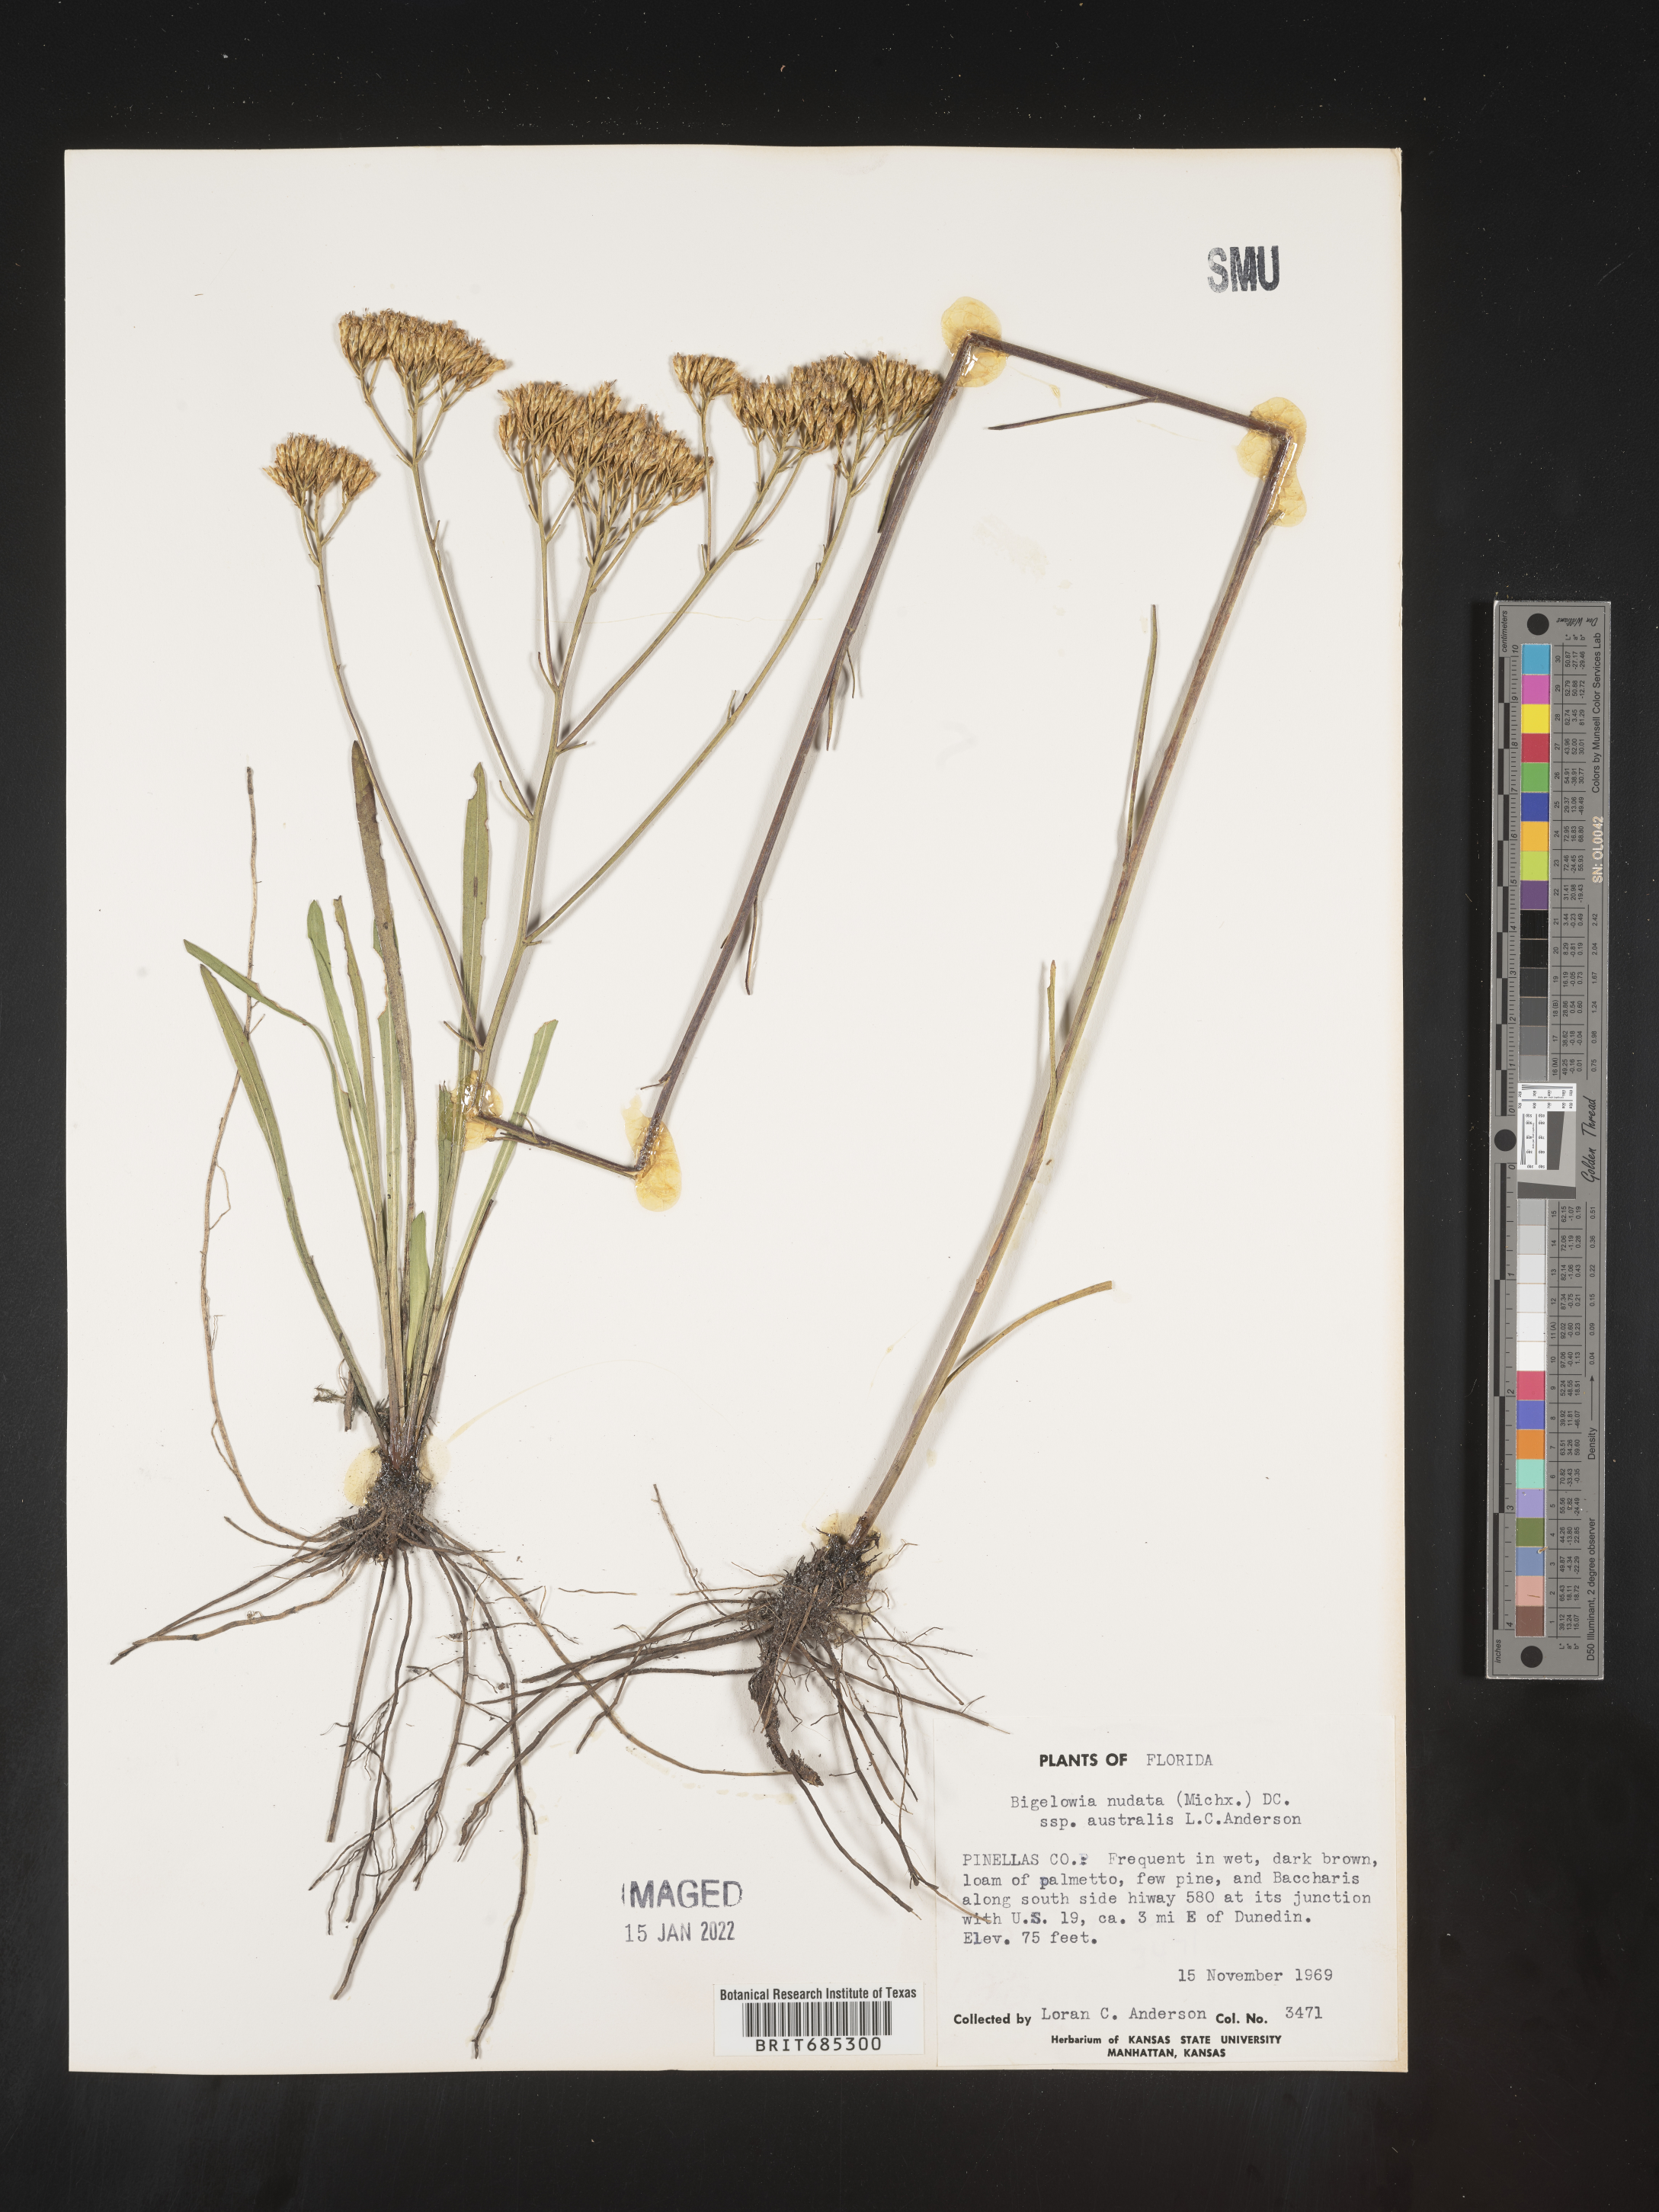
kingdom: Plantae
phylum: Tracheophyta
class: Magnoliopsida
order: Asterales
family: Asteraceae
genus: Bigelowia
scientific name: Bigelowia nudata
